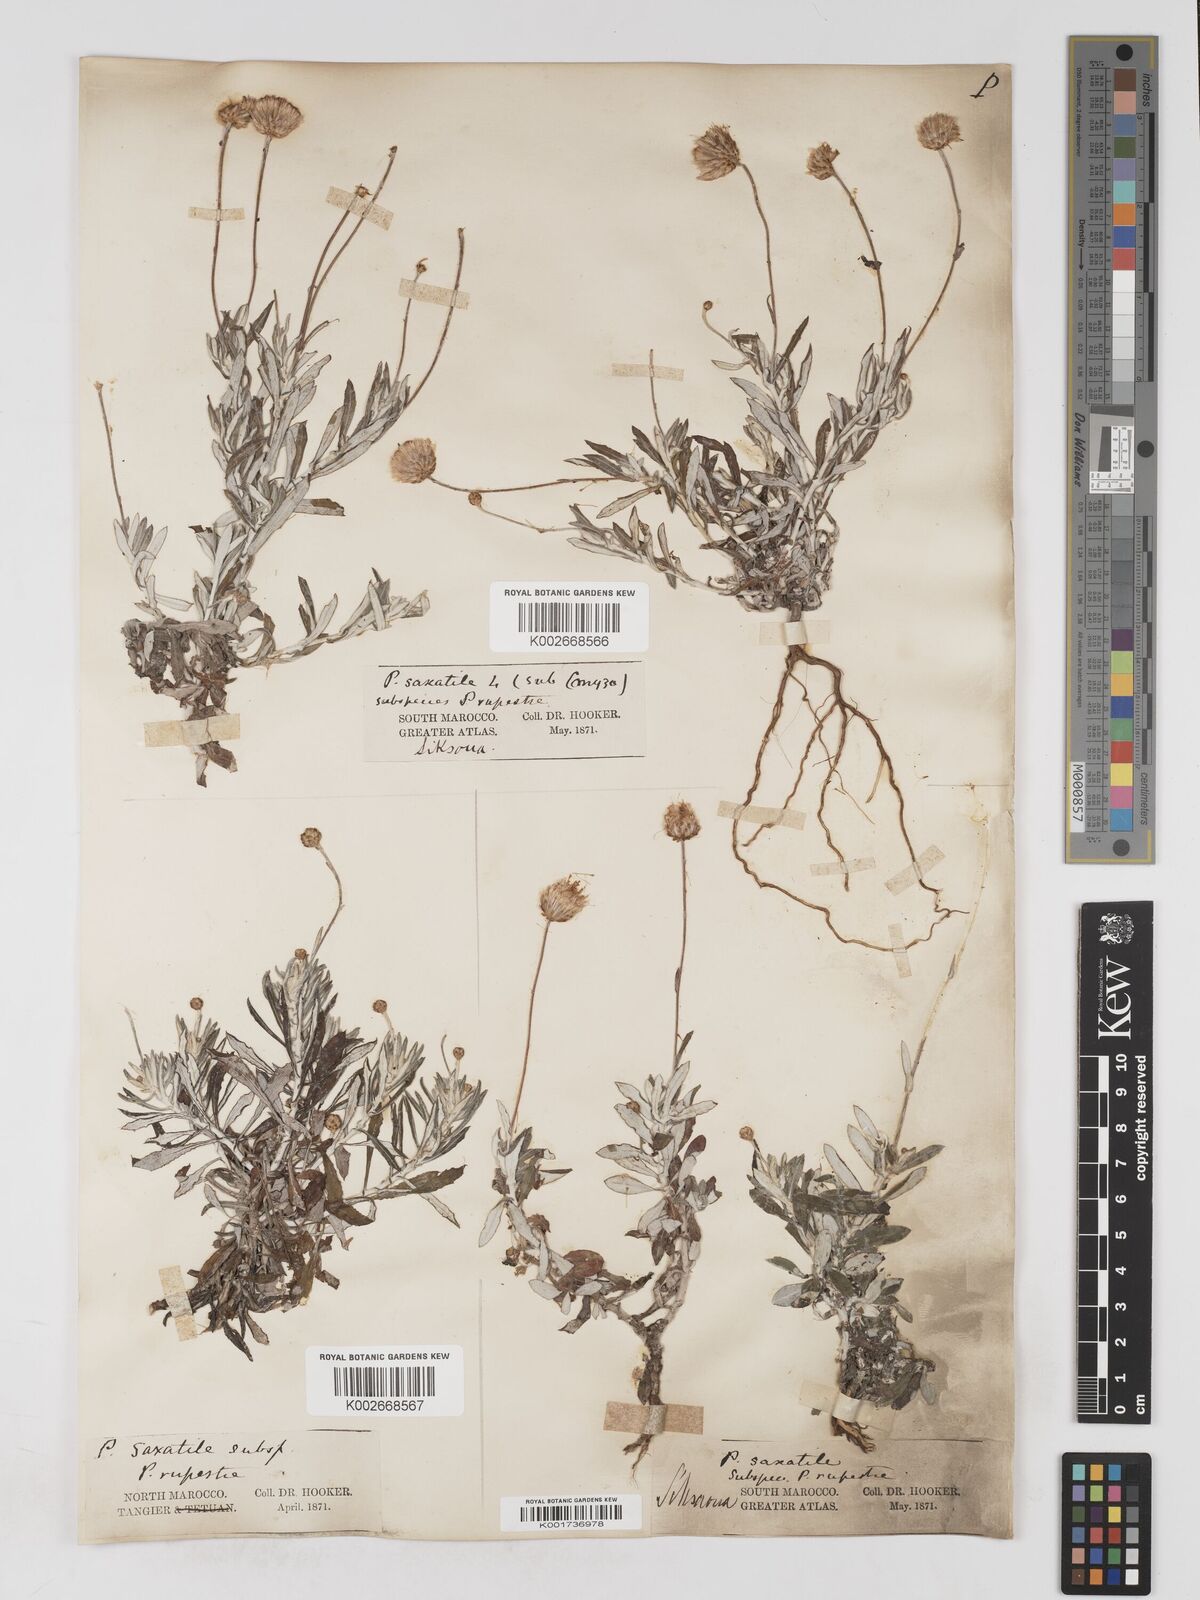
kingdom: Plantae
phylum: Tracheophyta
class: Magnoliopsida
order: Asterales
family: Asteraceae
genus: Phagnalon
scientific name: Phagnalon rupestre
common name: Rock phagnalon
